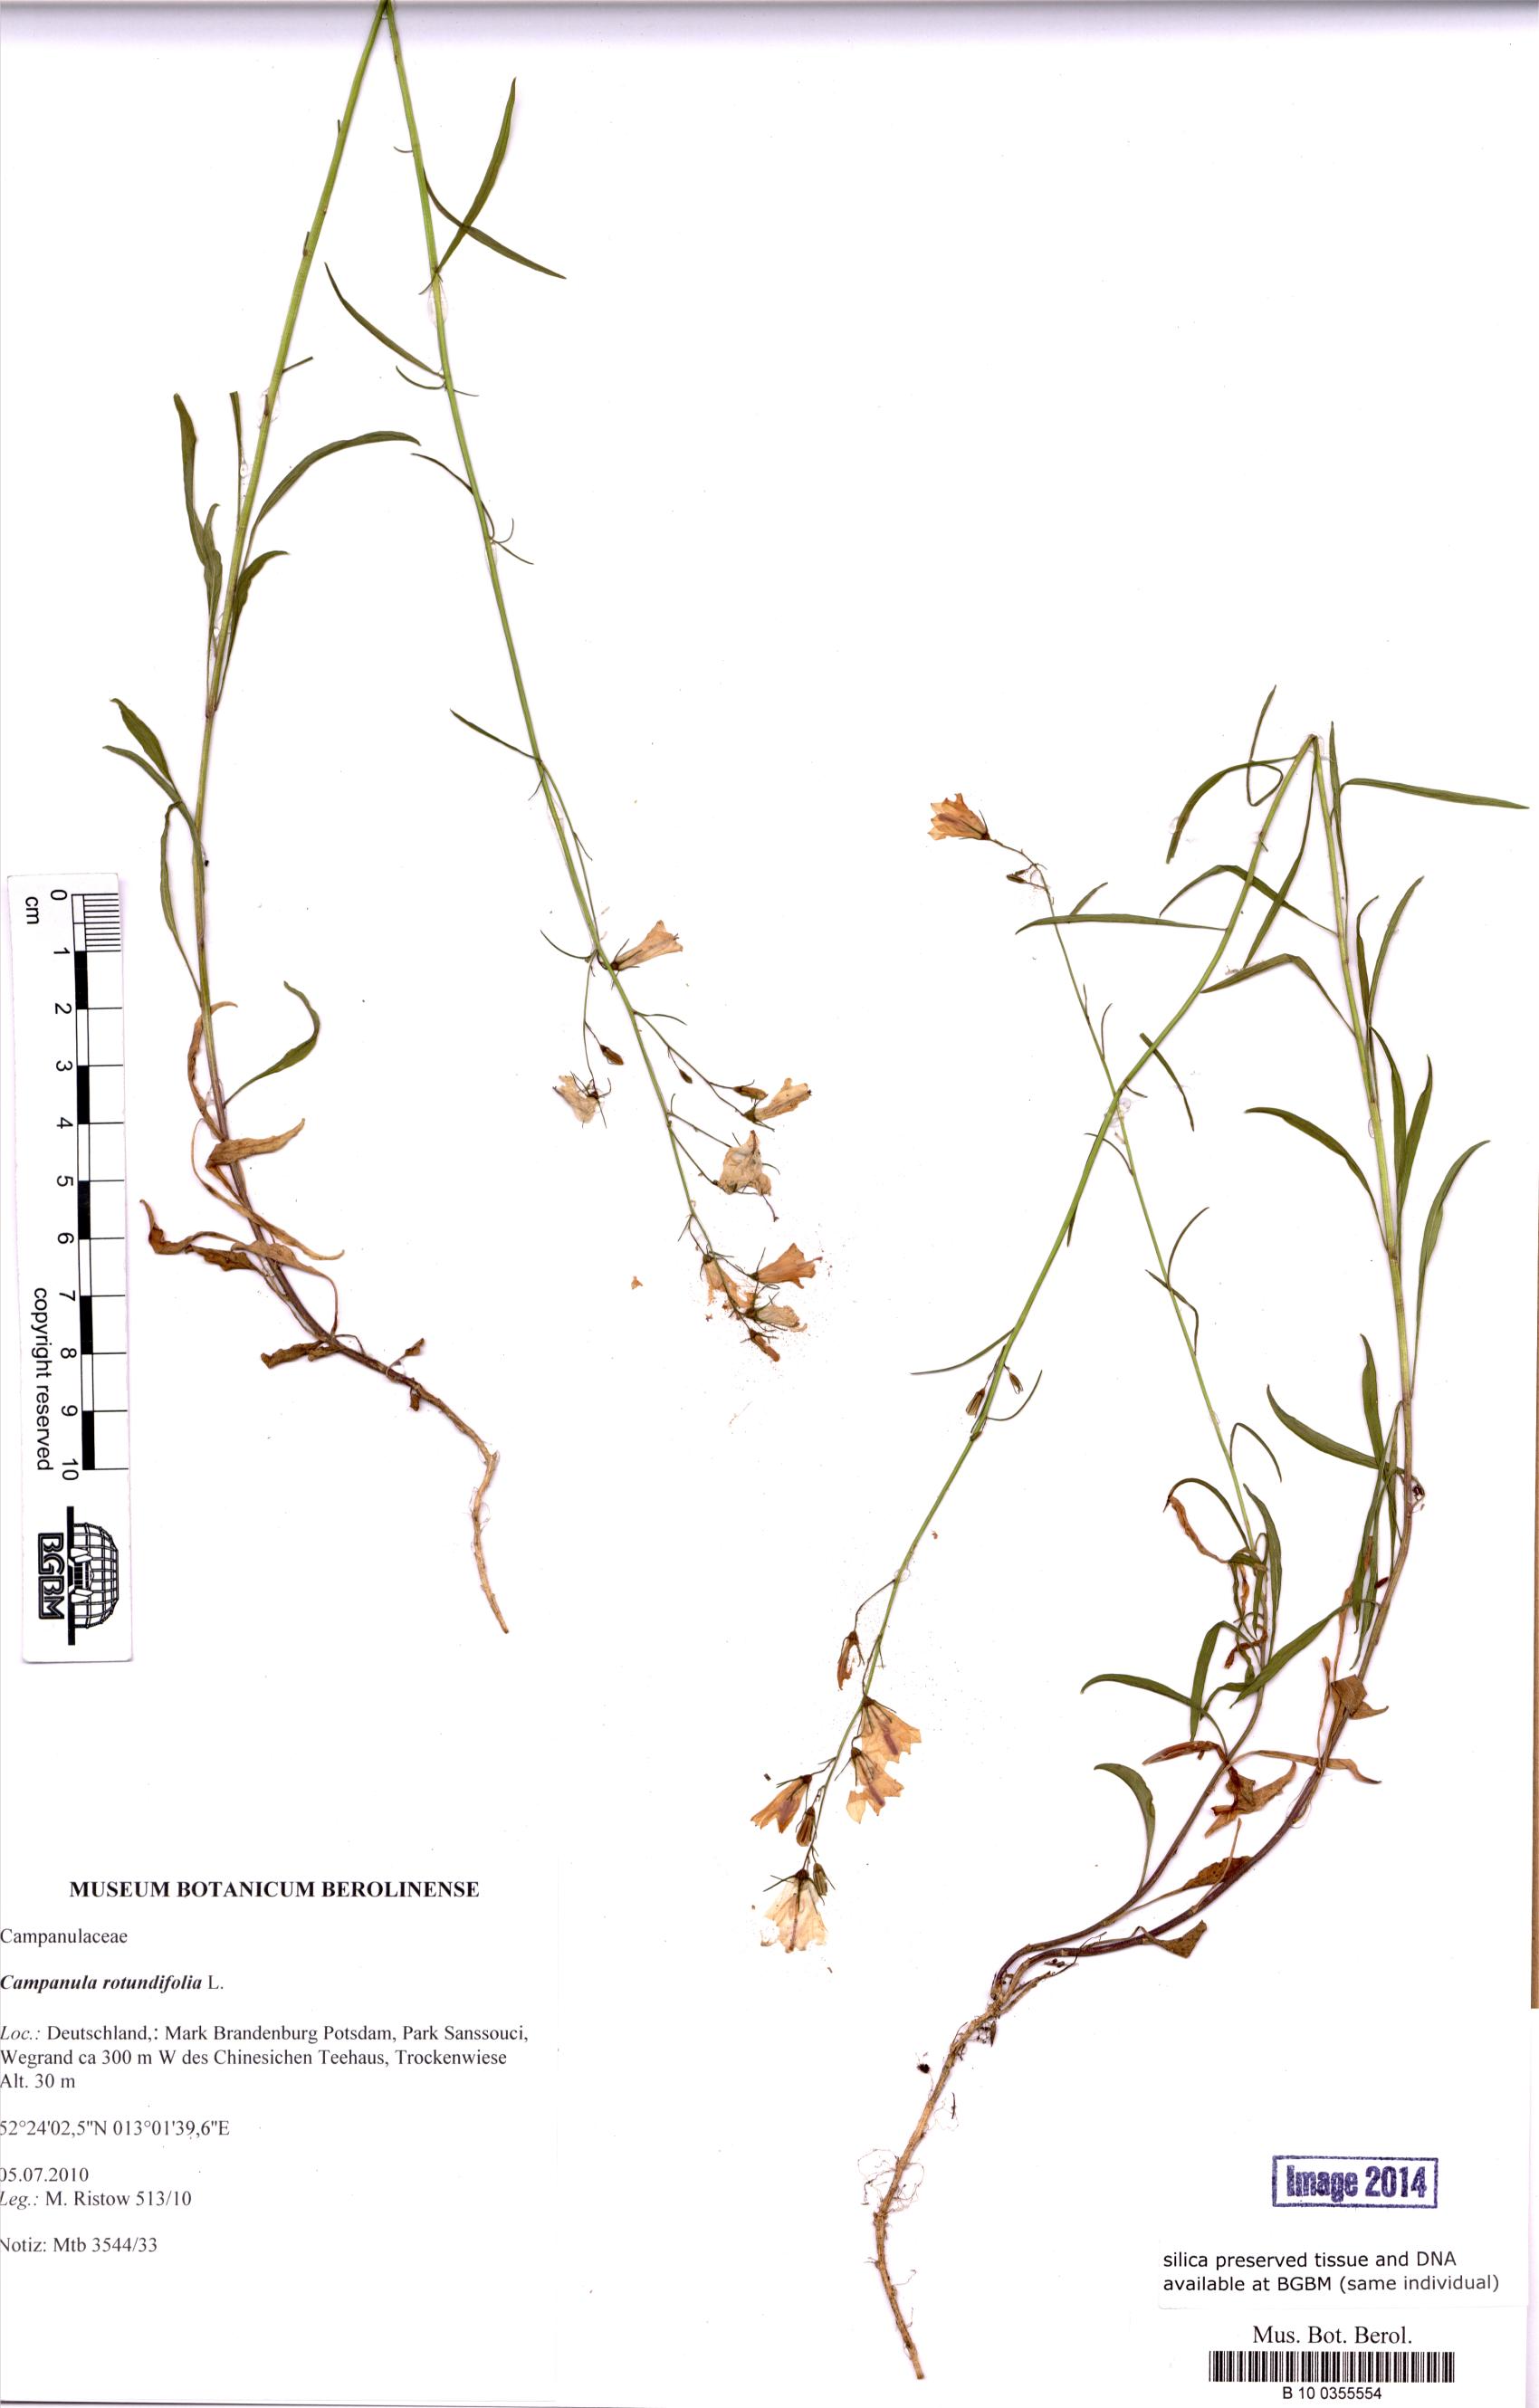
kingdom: Plantae
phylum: Tracheophyta
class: Magnoliopsida
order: Asterales
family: Campanulaceae
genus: Campanula
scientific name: Campanula rotundifolia
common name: Harebell
